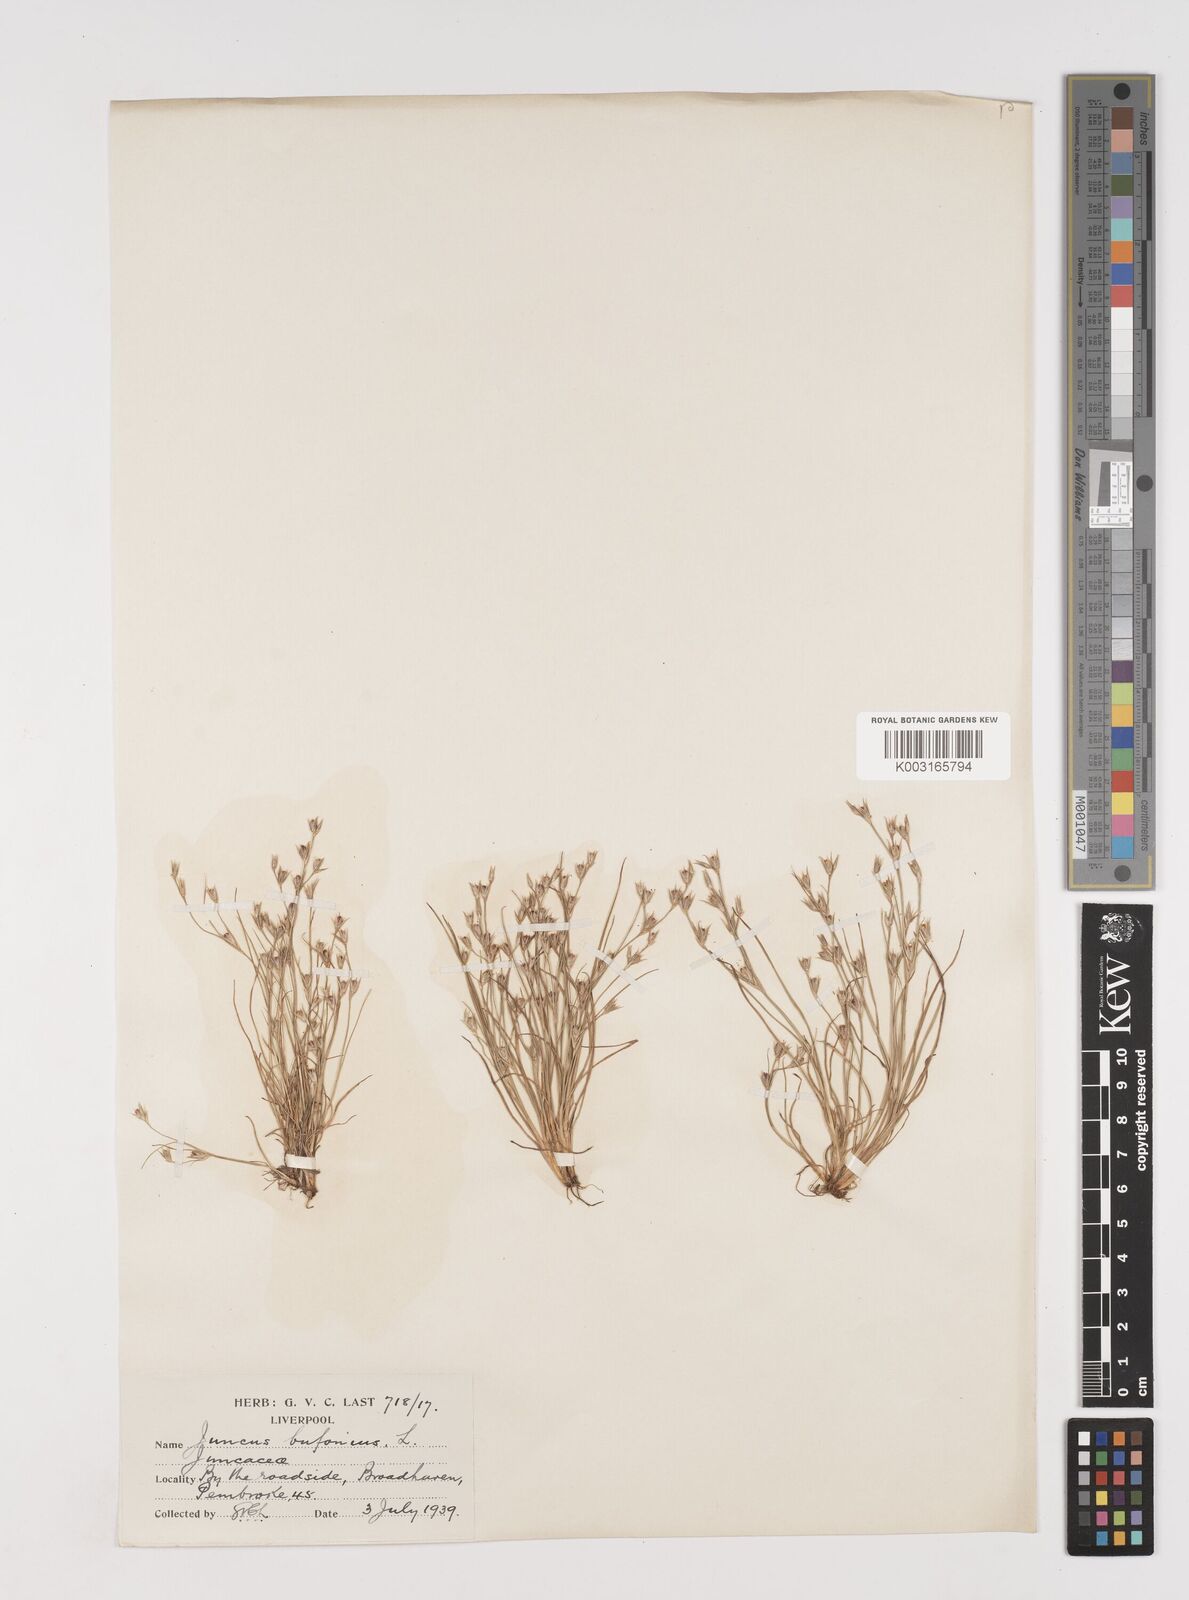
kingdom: Plantae
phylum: Tracheophyta
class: Liliopsida
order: Poales
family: Juncaceae
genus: Juncus
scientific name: Juncus bufonius
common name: Toad rush
